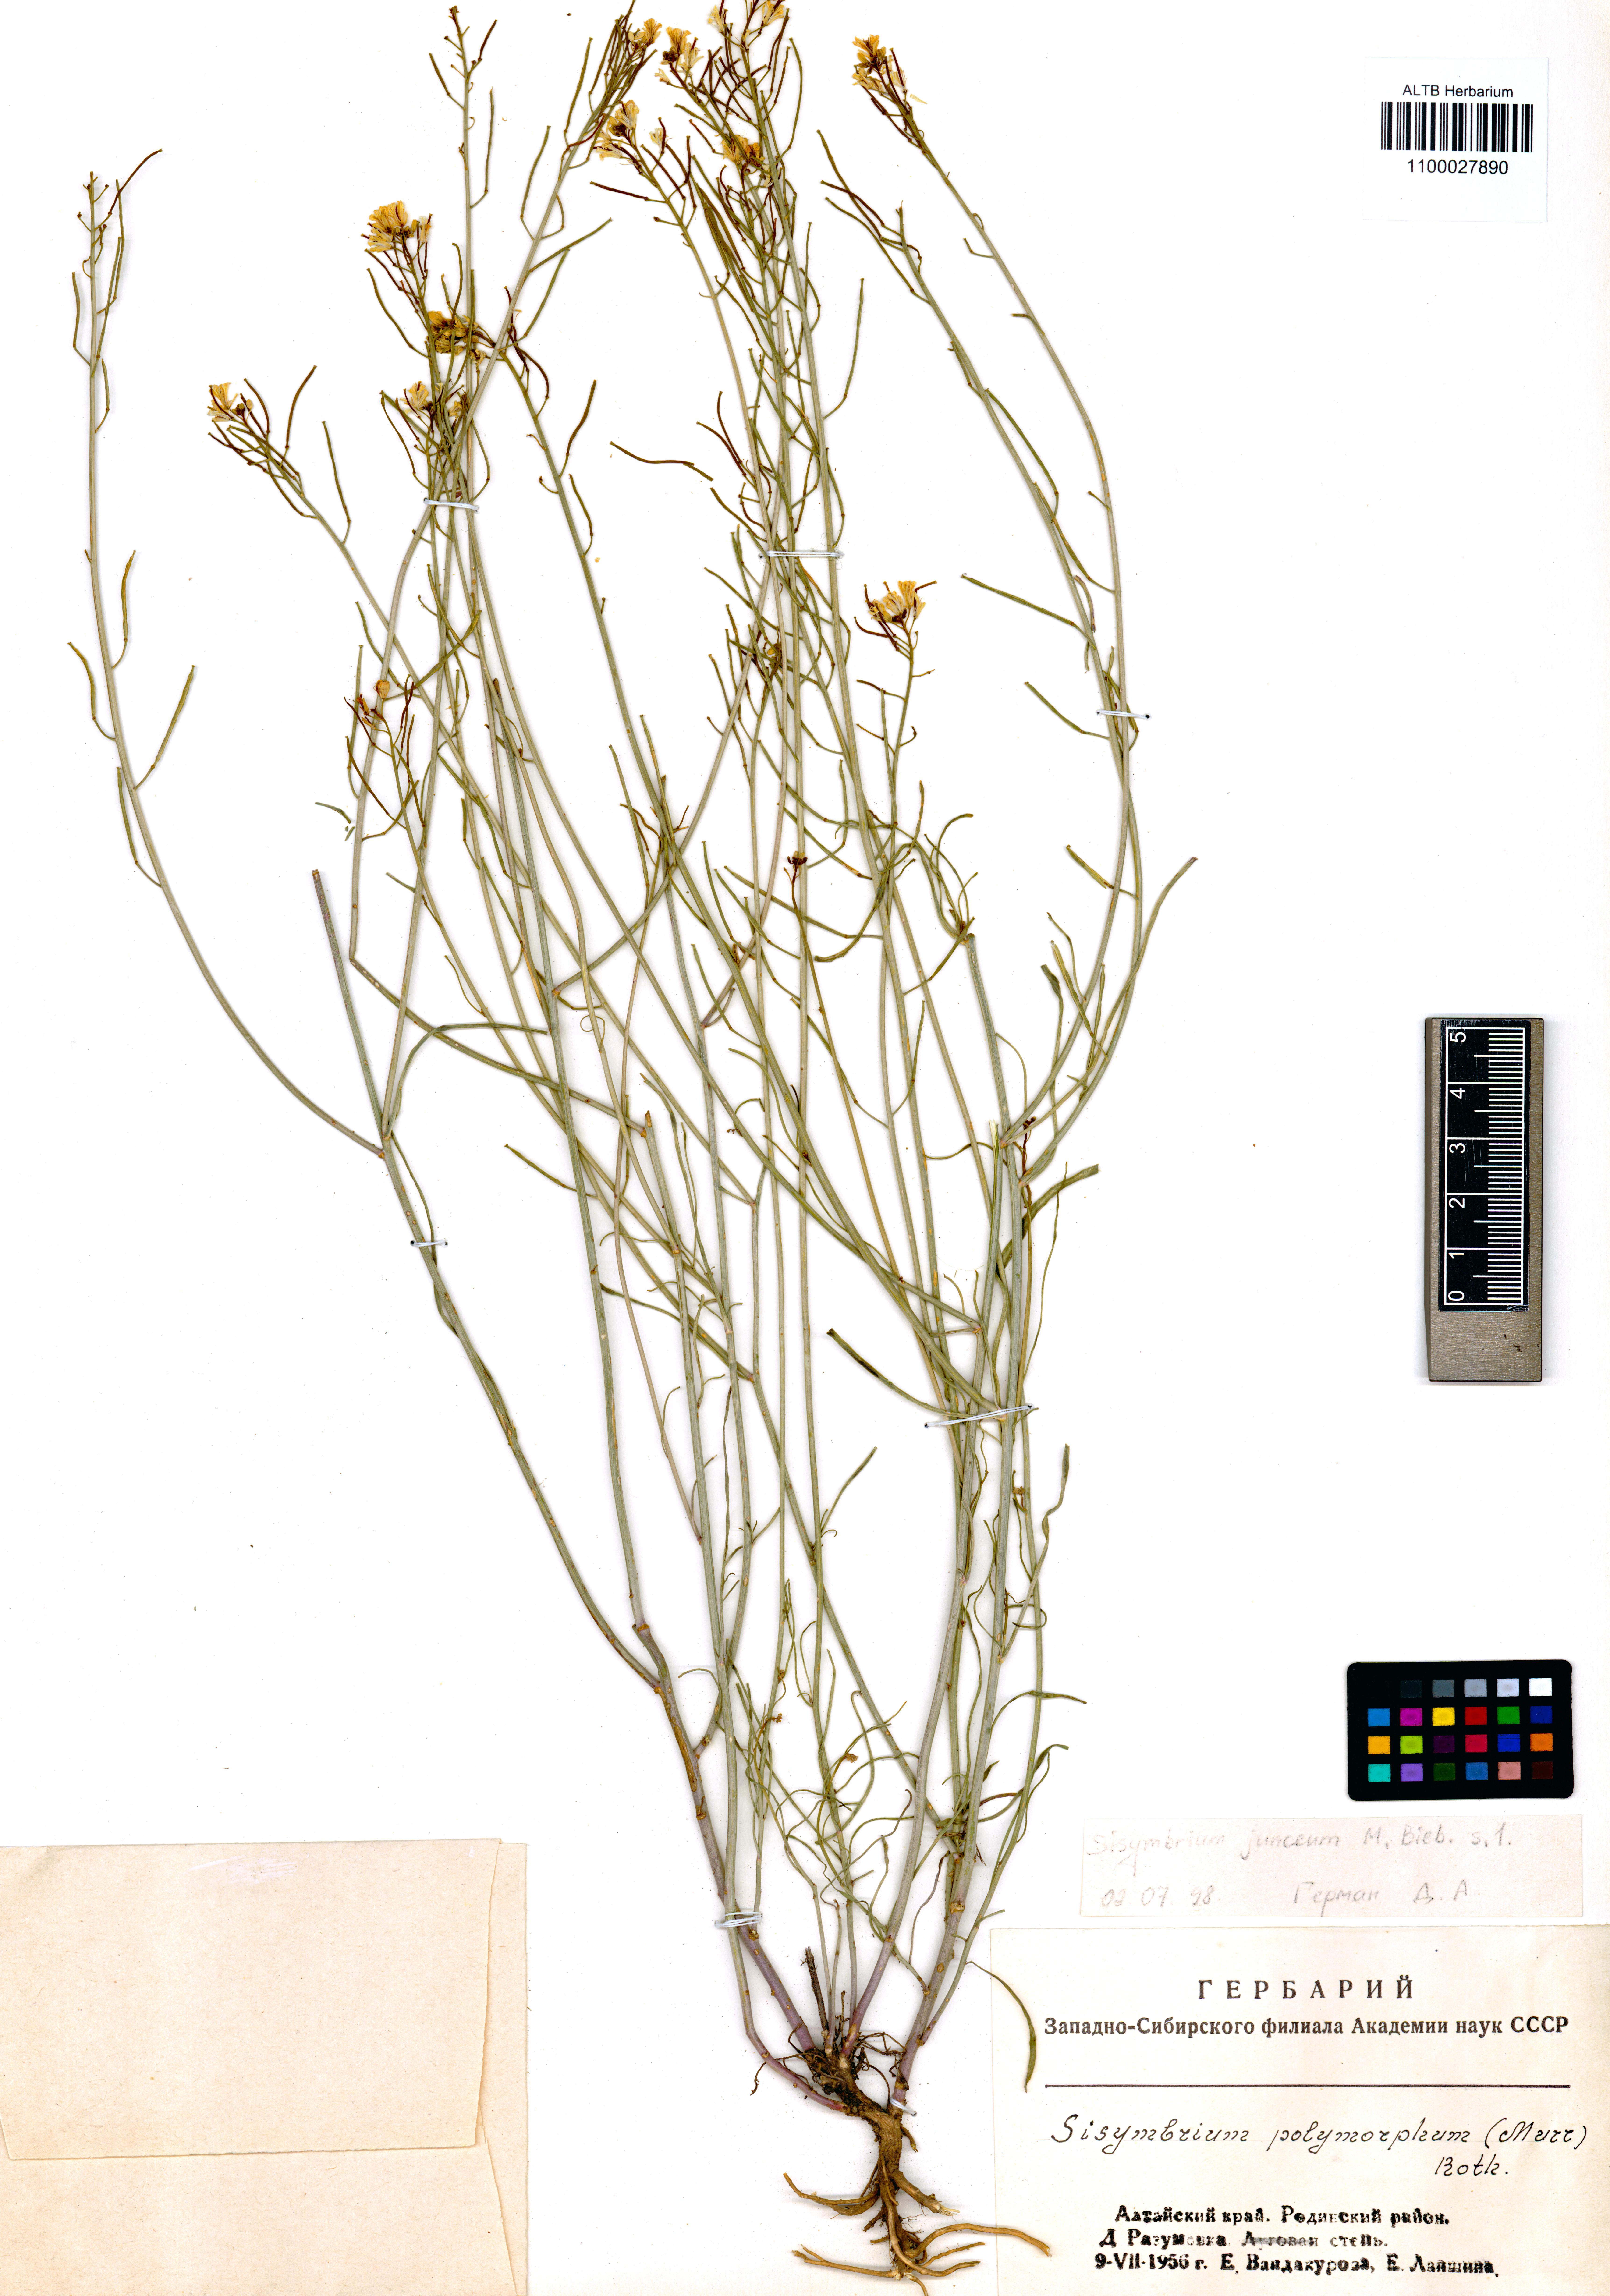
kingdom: Plantae
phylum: Tracheophyta
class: Magnoliopsida
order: Brassicales
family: Brassicaceae
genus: Sisymbrium
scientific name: Sisymbrium polymorphum
